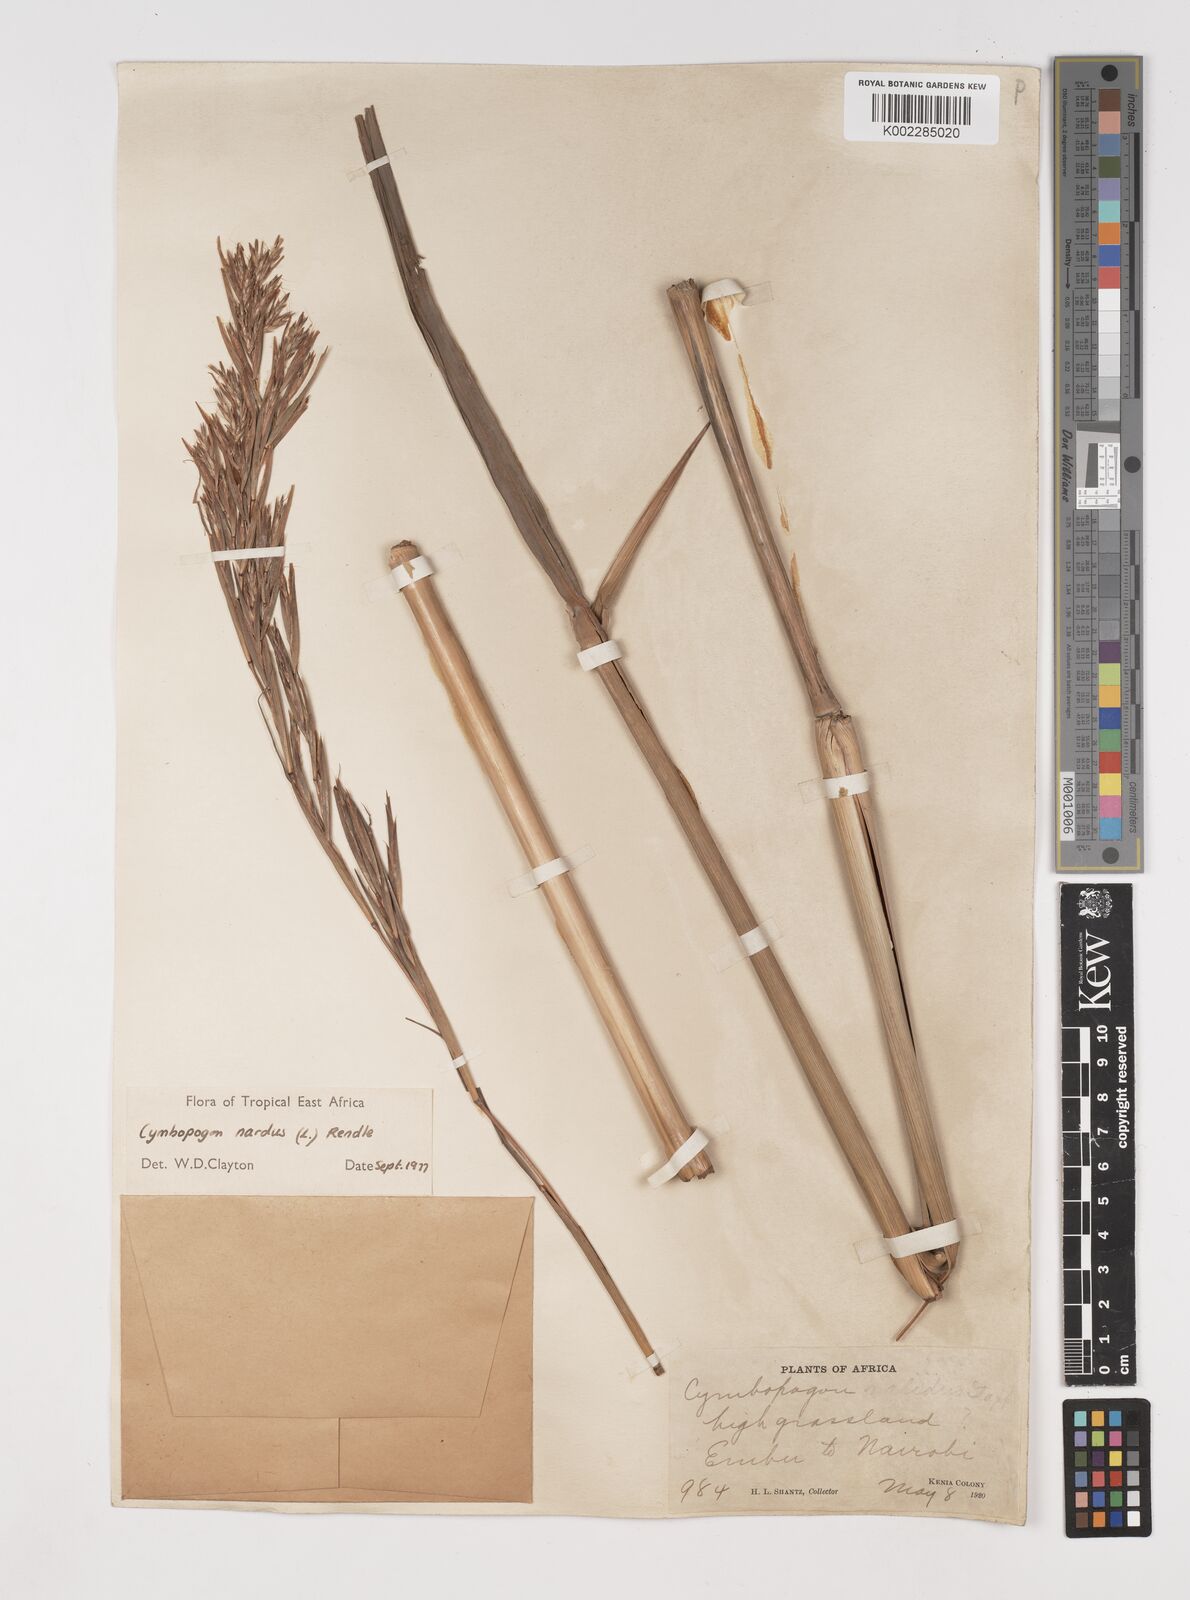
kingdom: Plantae
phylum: Tracheophyta
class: Liliopsida
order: Poales
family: Poaceae
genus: Cymbopogon
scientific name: Cymbopogon nardus
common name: Giant turpentine grass
